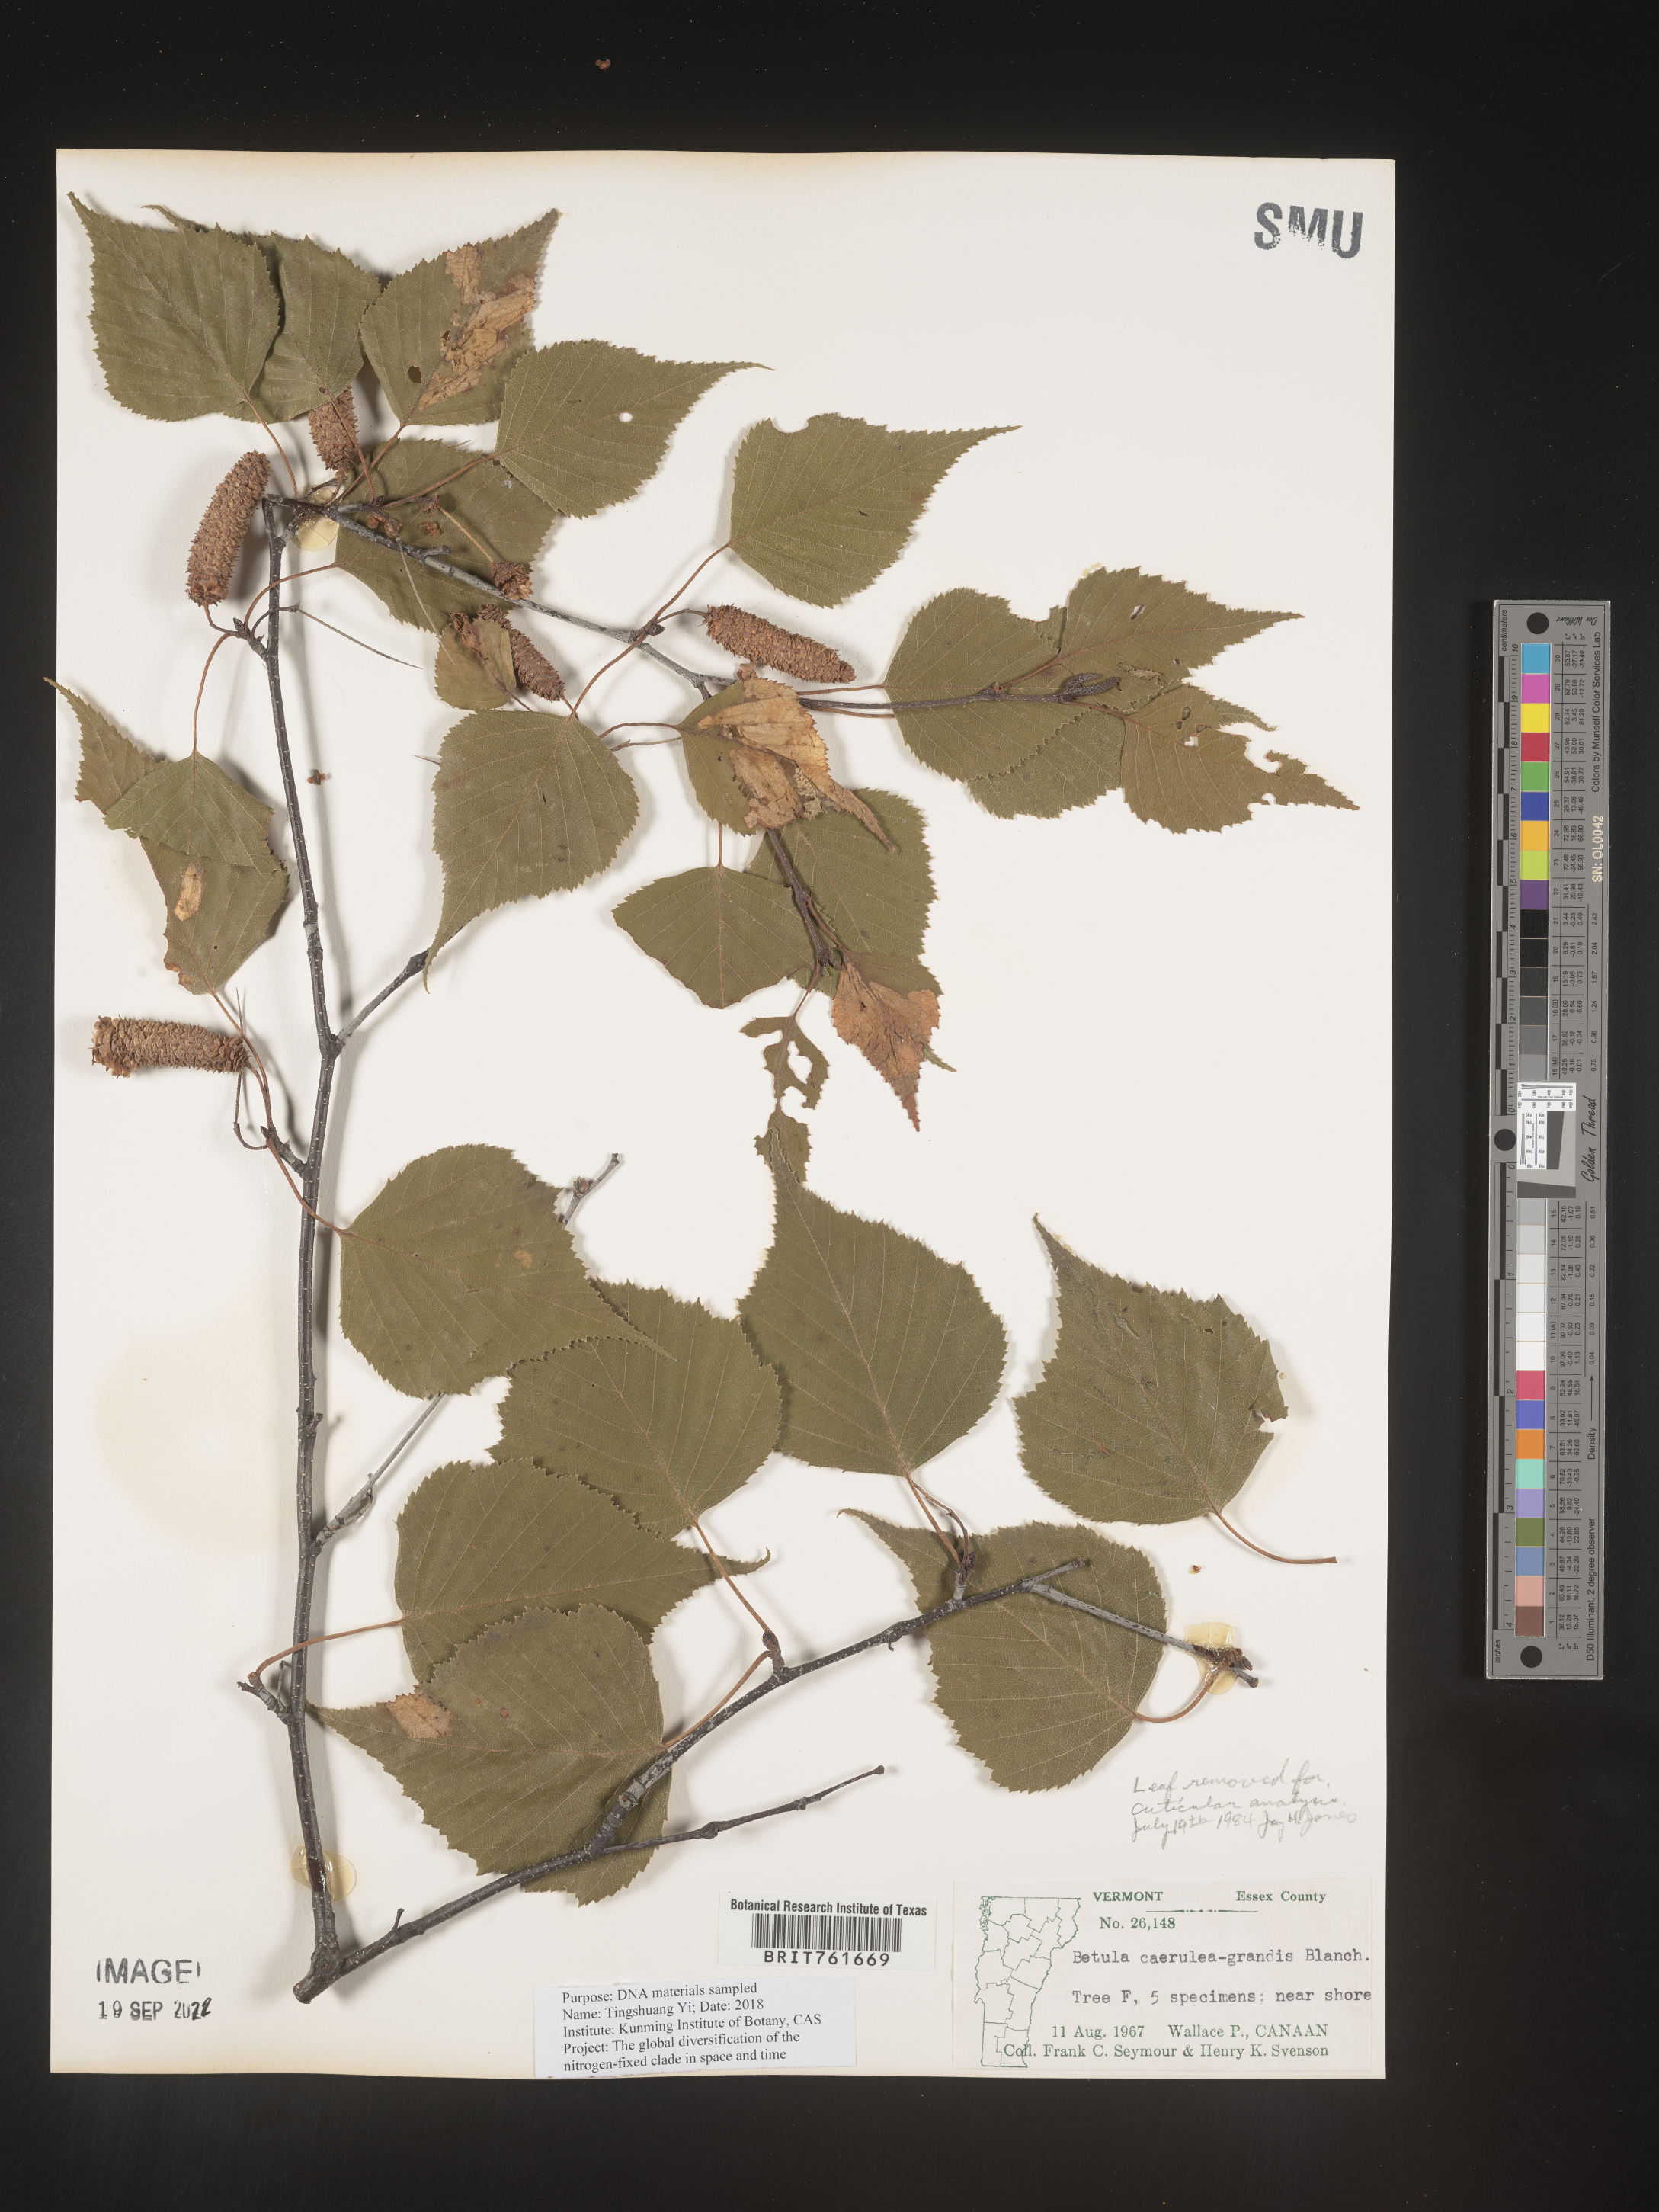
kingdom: Plantae
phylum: Tracheophyta
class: Magnoliopsida
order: Fagales
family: Betulaceae
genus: Betula
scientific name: Betula
